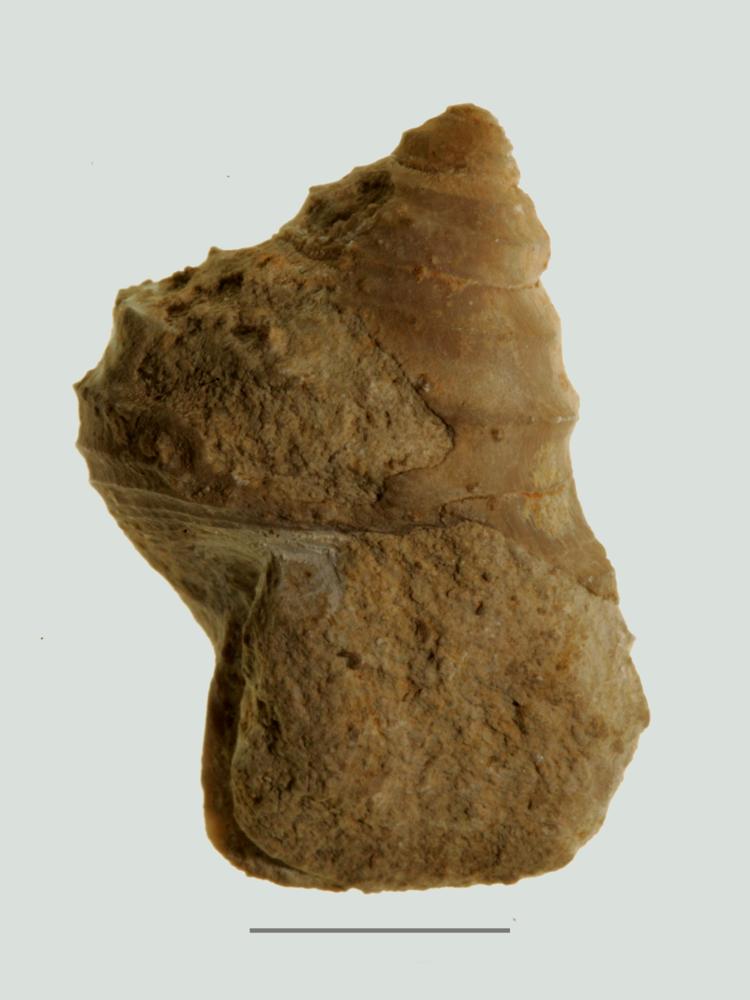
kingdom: Animalia
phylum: Mollusca
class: Gastropoda
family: Platyceratidae
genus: Cyclonema
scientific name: Cyclonema Turbo rupestre
